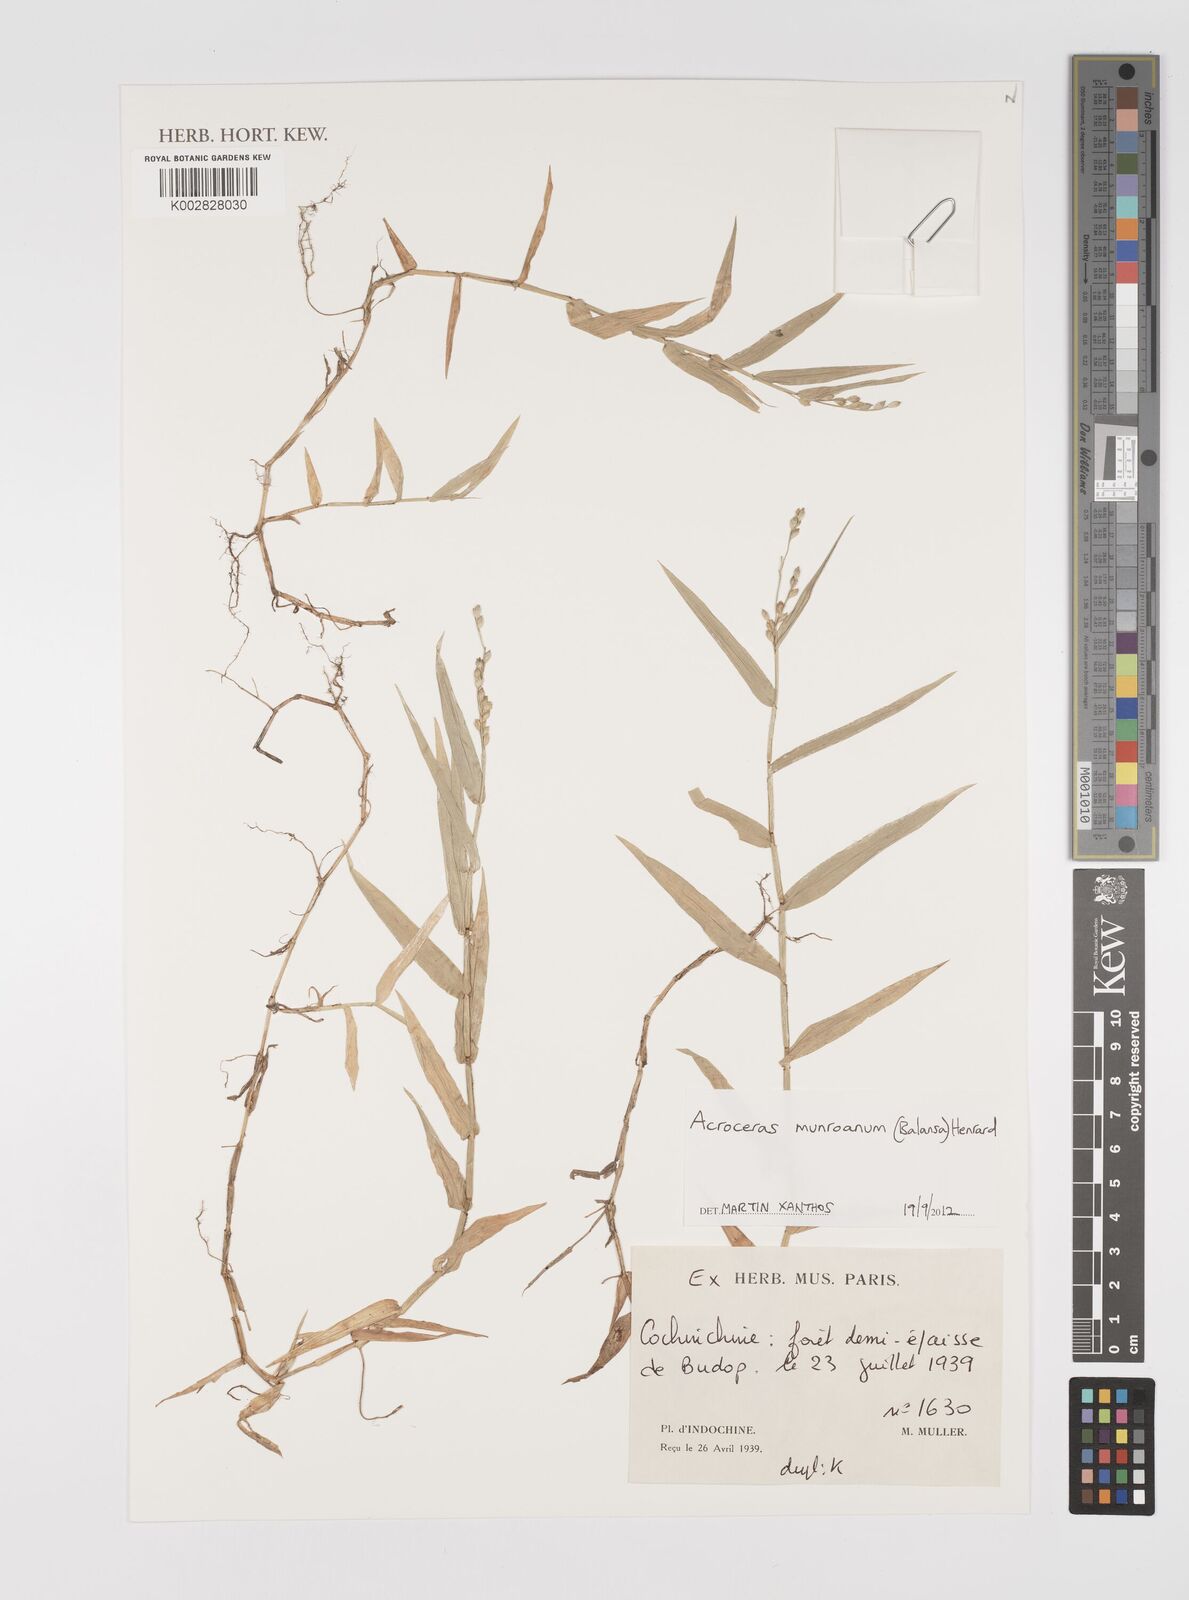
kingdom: Plantae
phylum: Tracheophyta
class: Liliopsida
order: Poales
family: Poaceae
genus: Acroceras
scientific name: Acroceras munroanum
